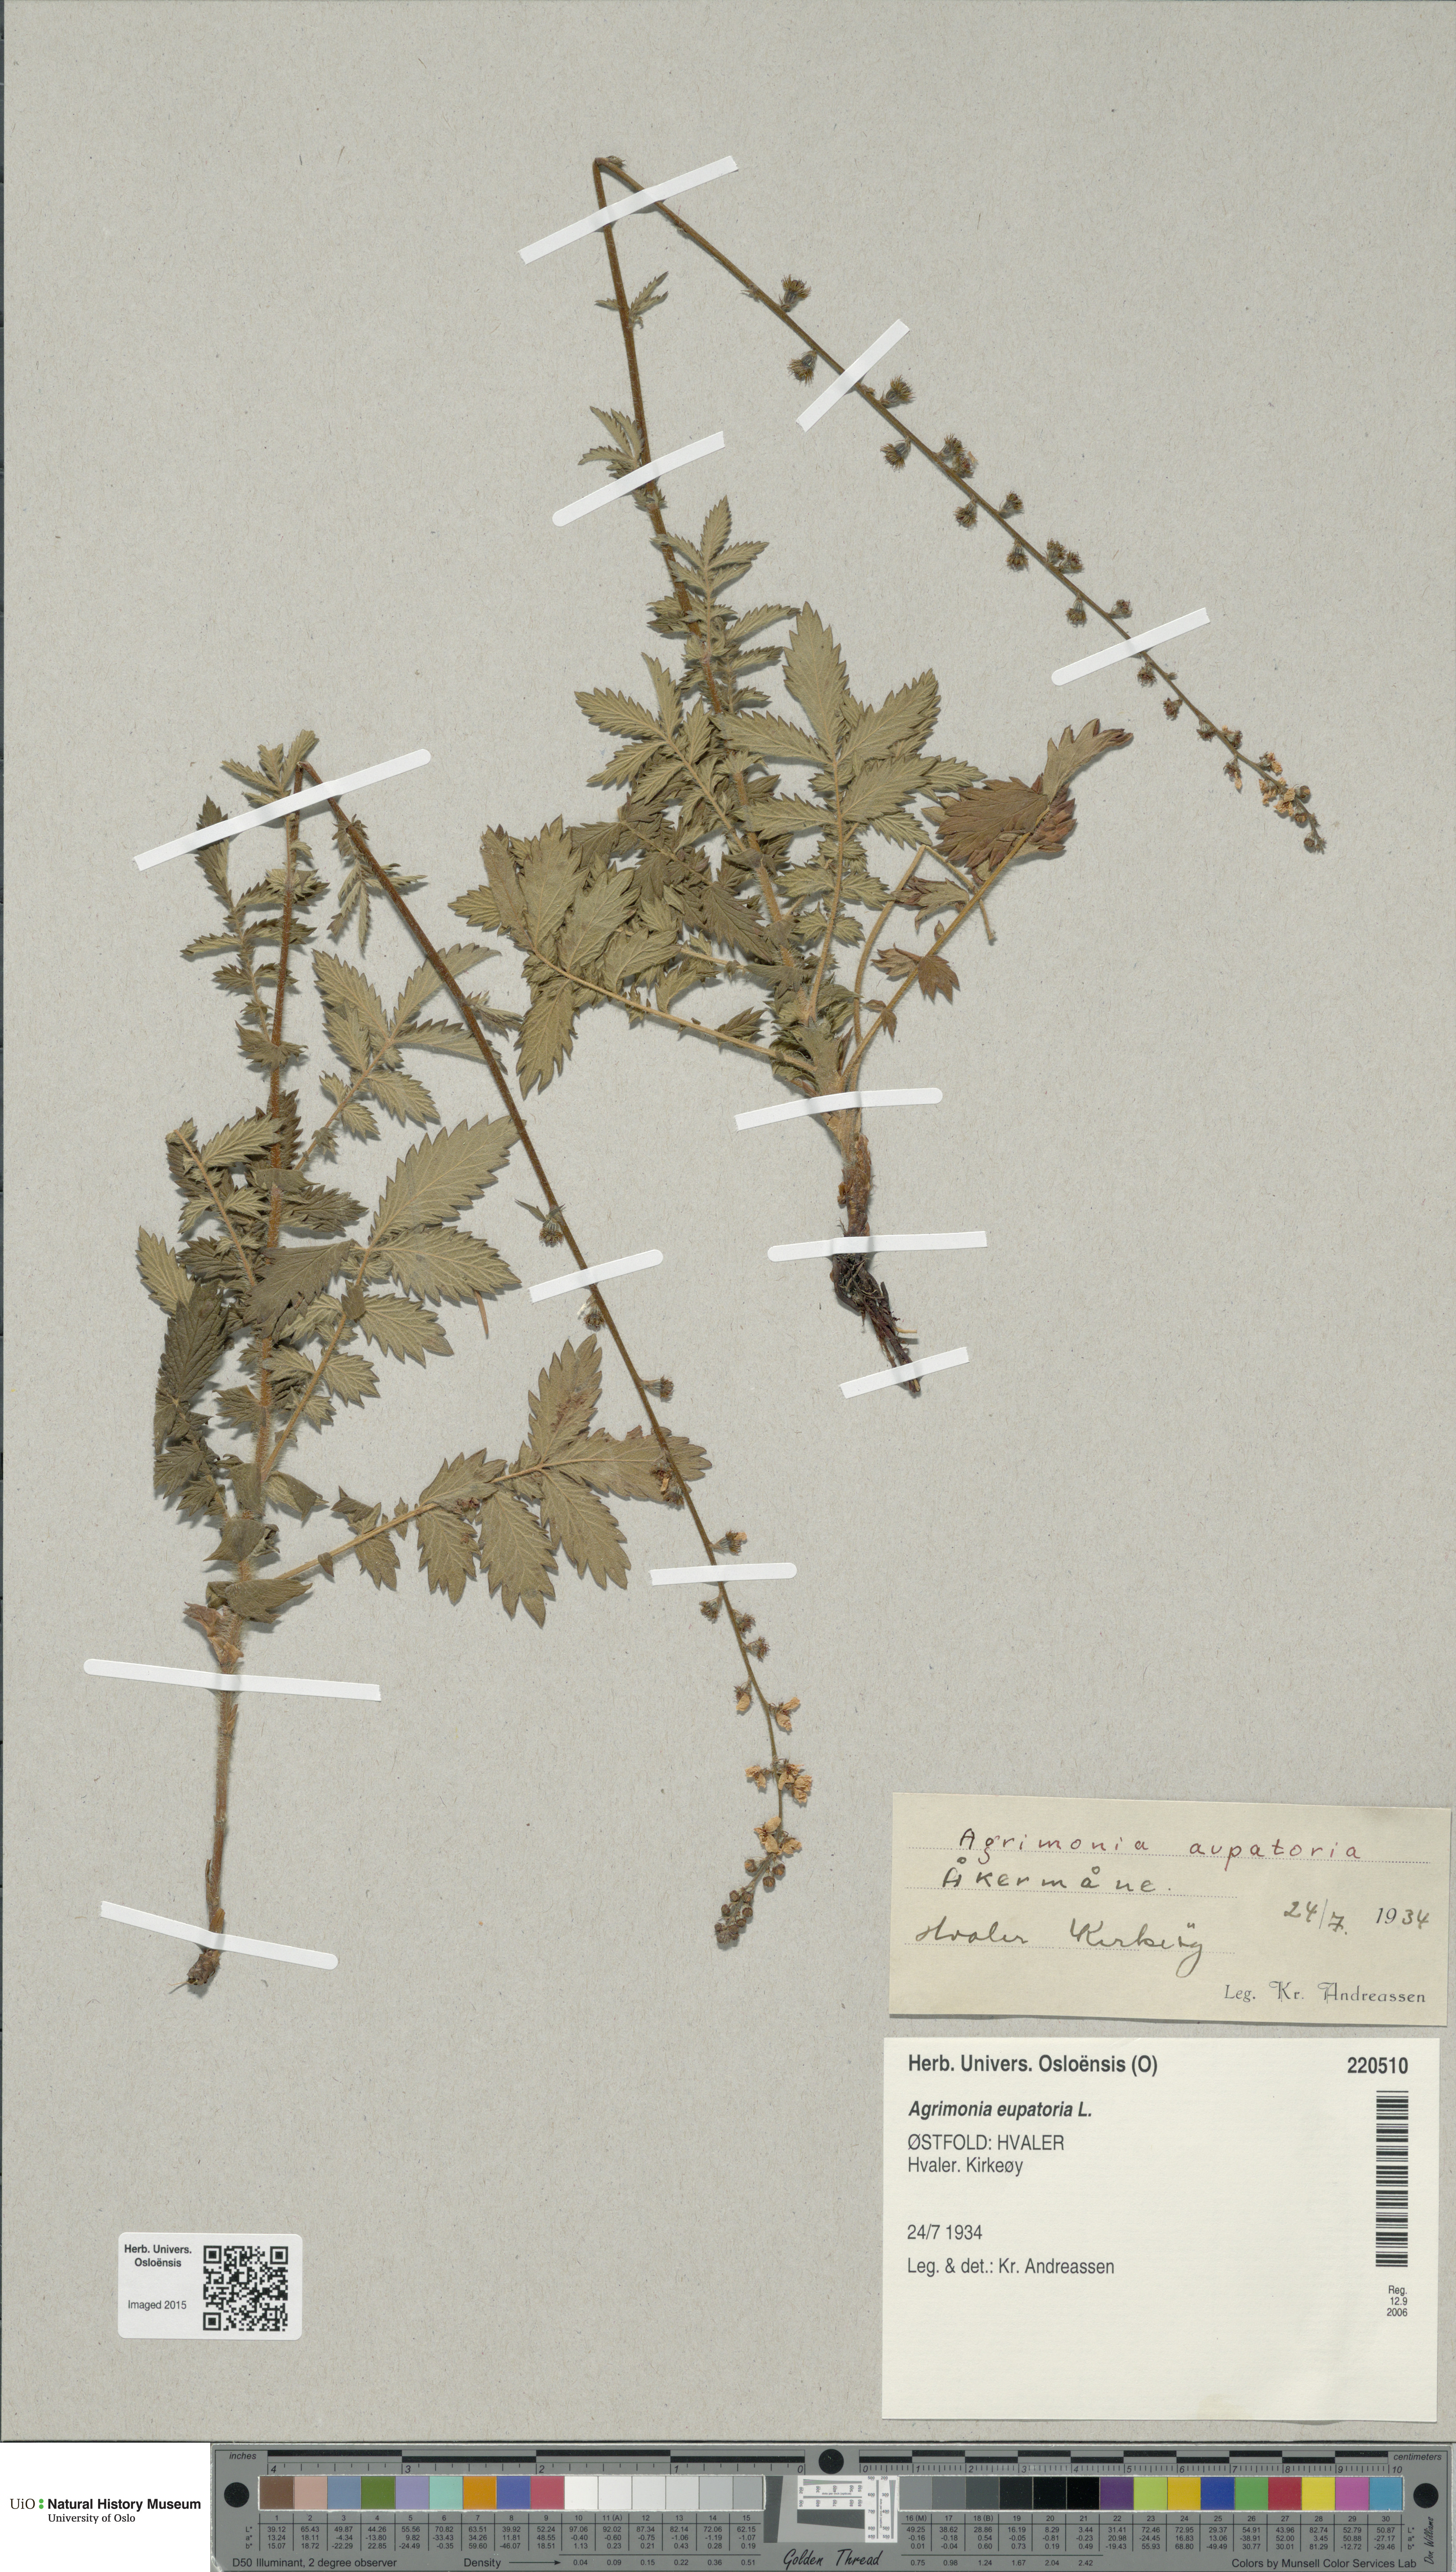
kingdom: Plantae
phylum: Tracheophyta
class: Magnoliopsida
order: Rosales
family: Rosaceae
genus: Agrimonia
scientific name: Agrimonia eupatoria
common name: Agrimony
